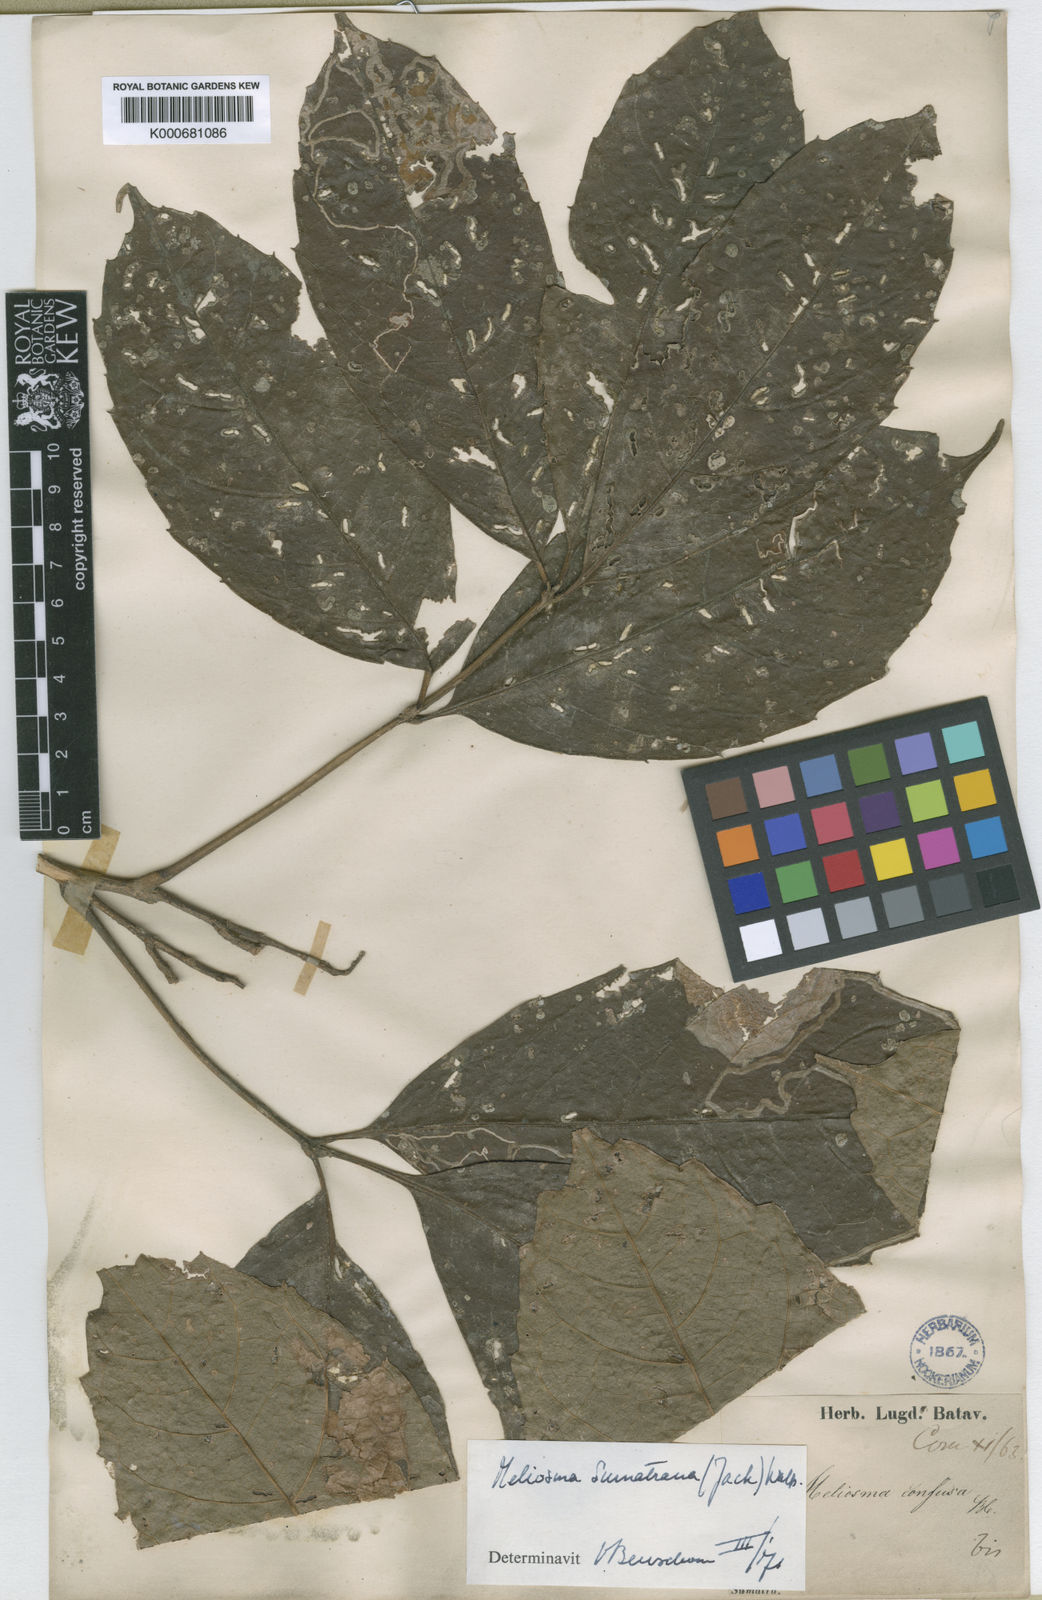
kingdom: Plantae
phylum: Tracheophyta
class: Magnoliopsida
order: Proteales
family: Sabiaceae
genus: Meliosma
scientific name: Meliosma sumatrana
